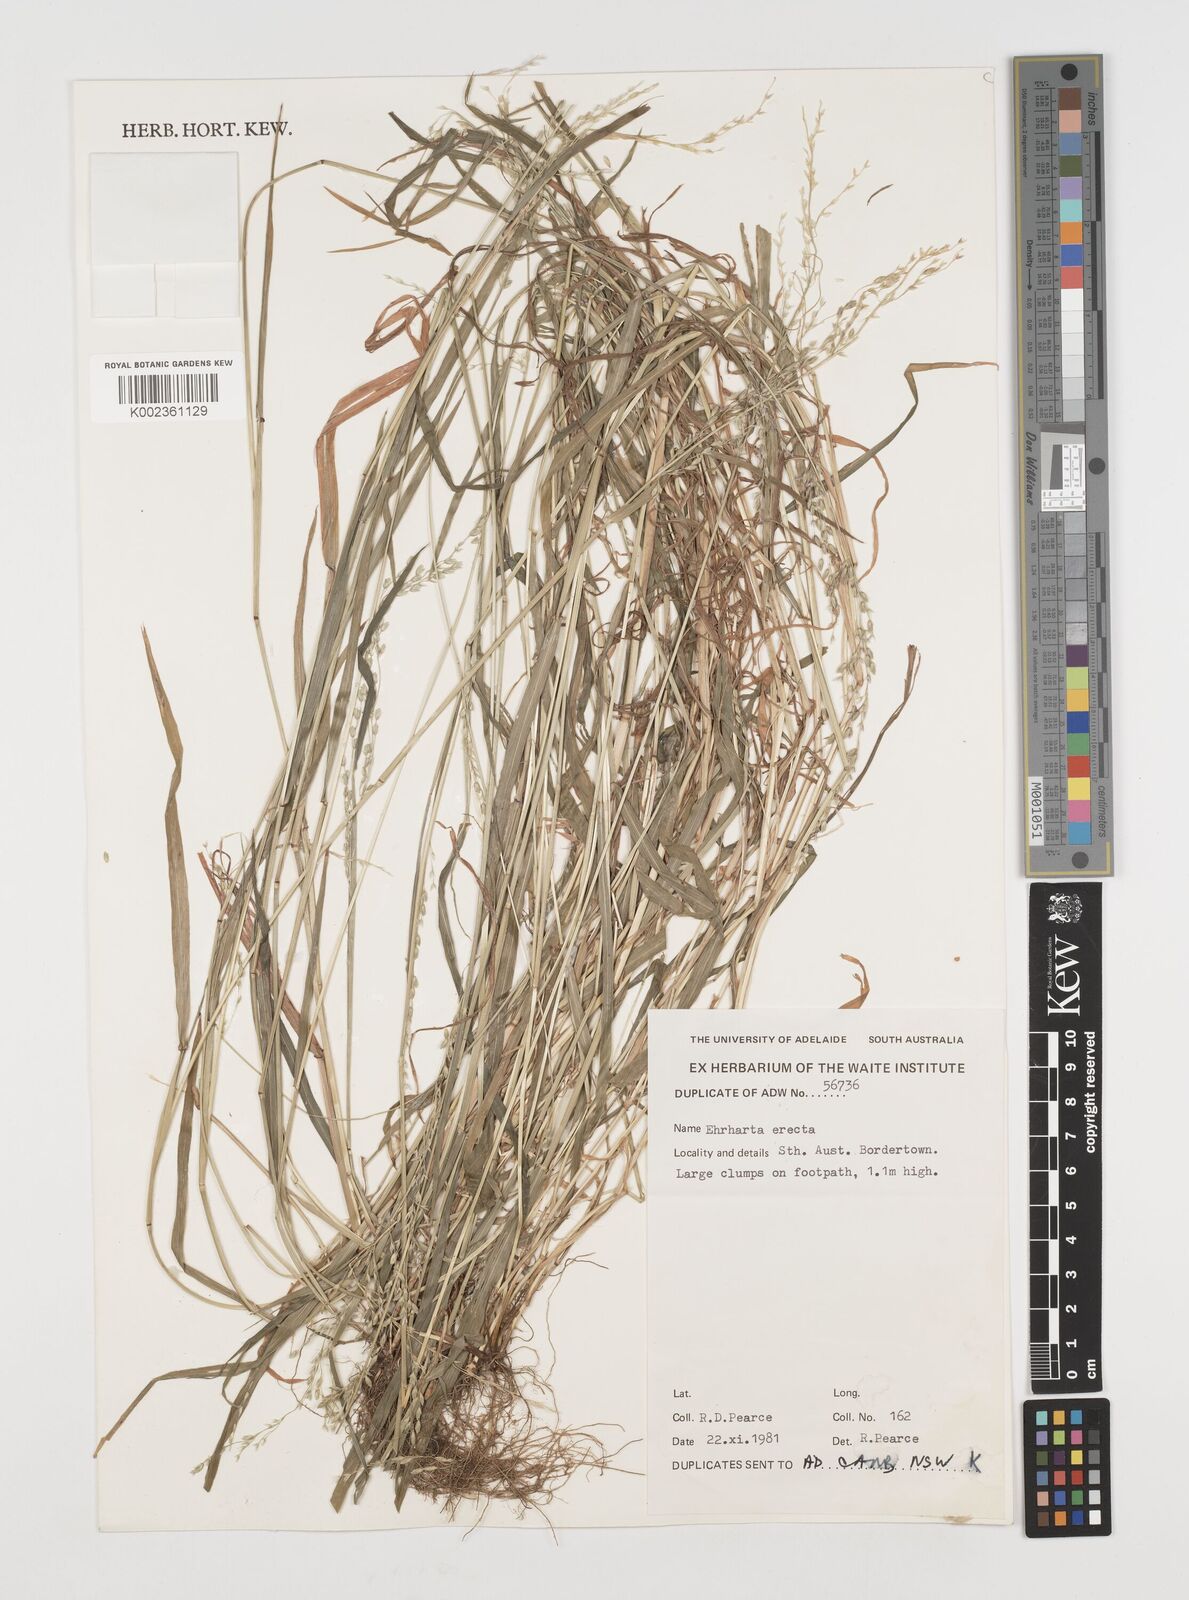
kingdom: Plantae
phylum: Tracheophyta
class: Liliopsida
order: Poales
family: Poaceae
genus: Ehrharta
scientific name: Ehrharta longiflora
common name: Longflowered veldtgrass
